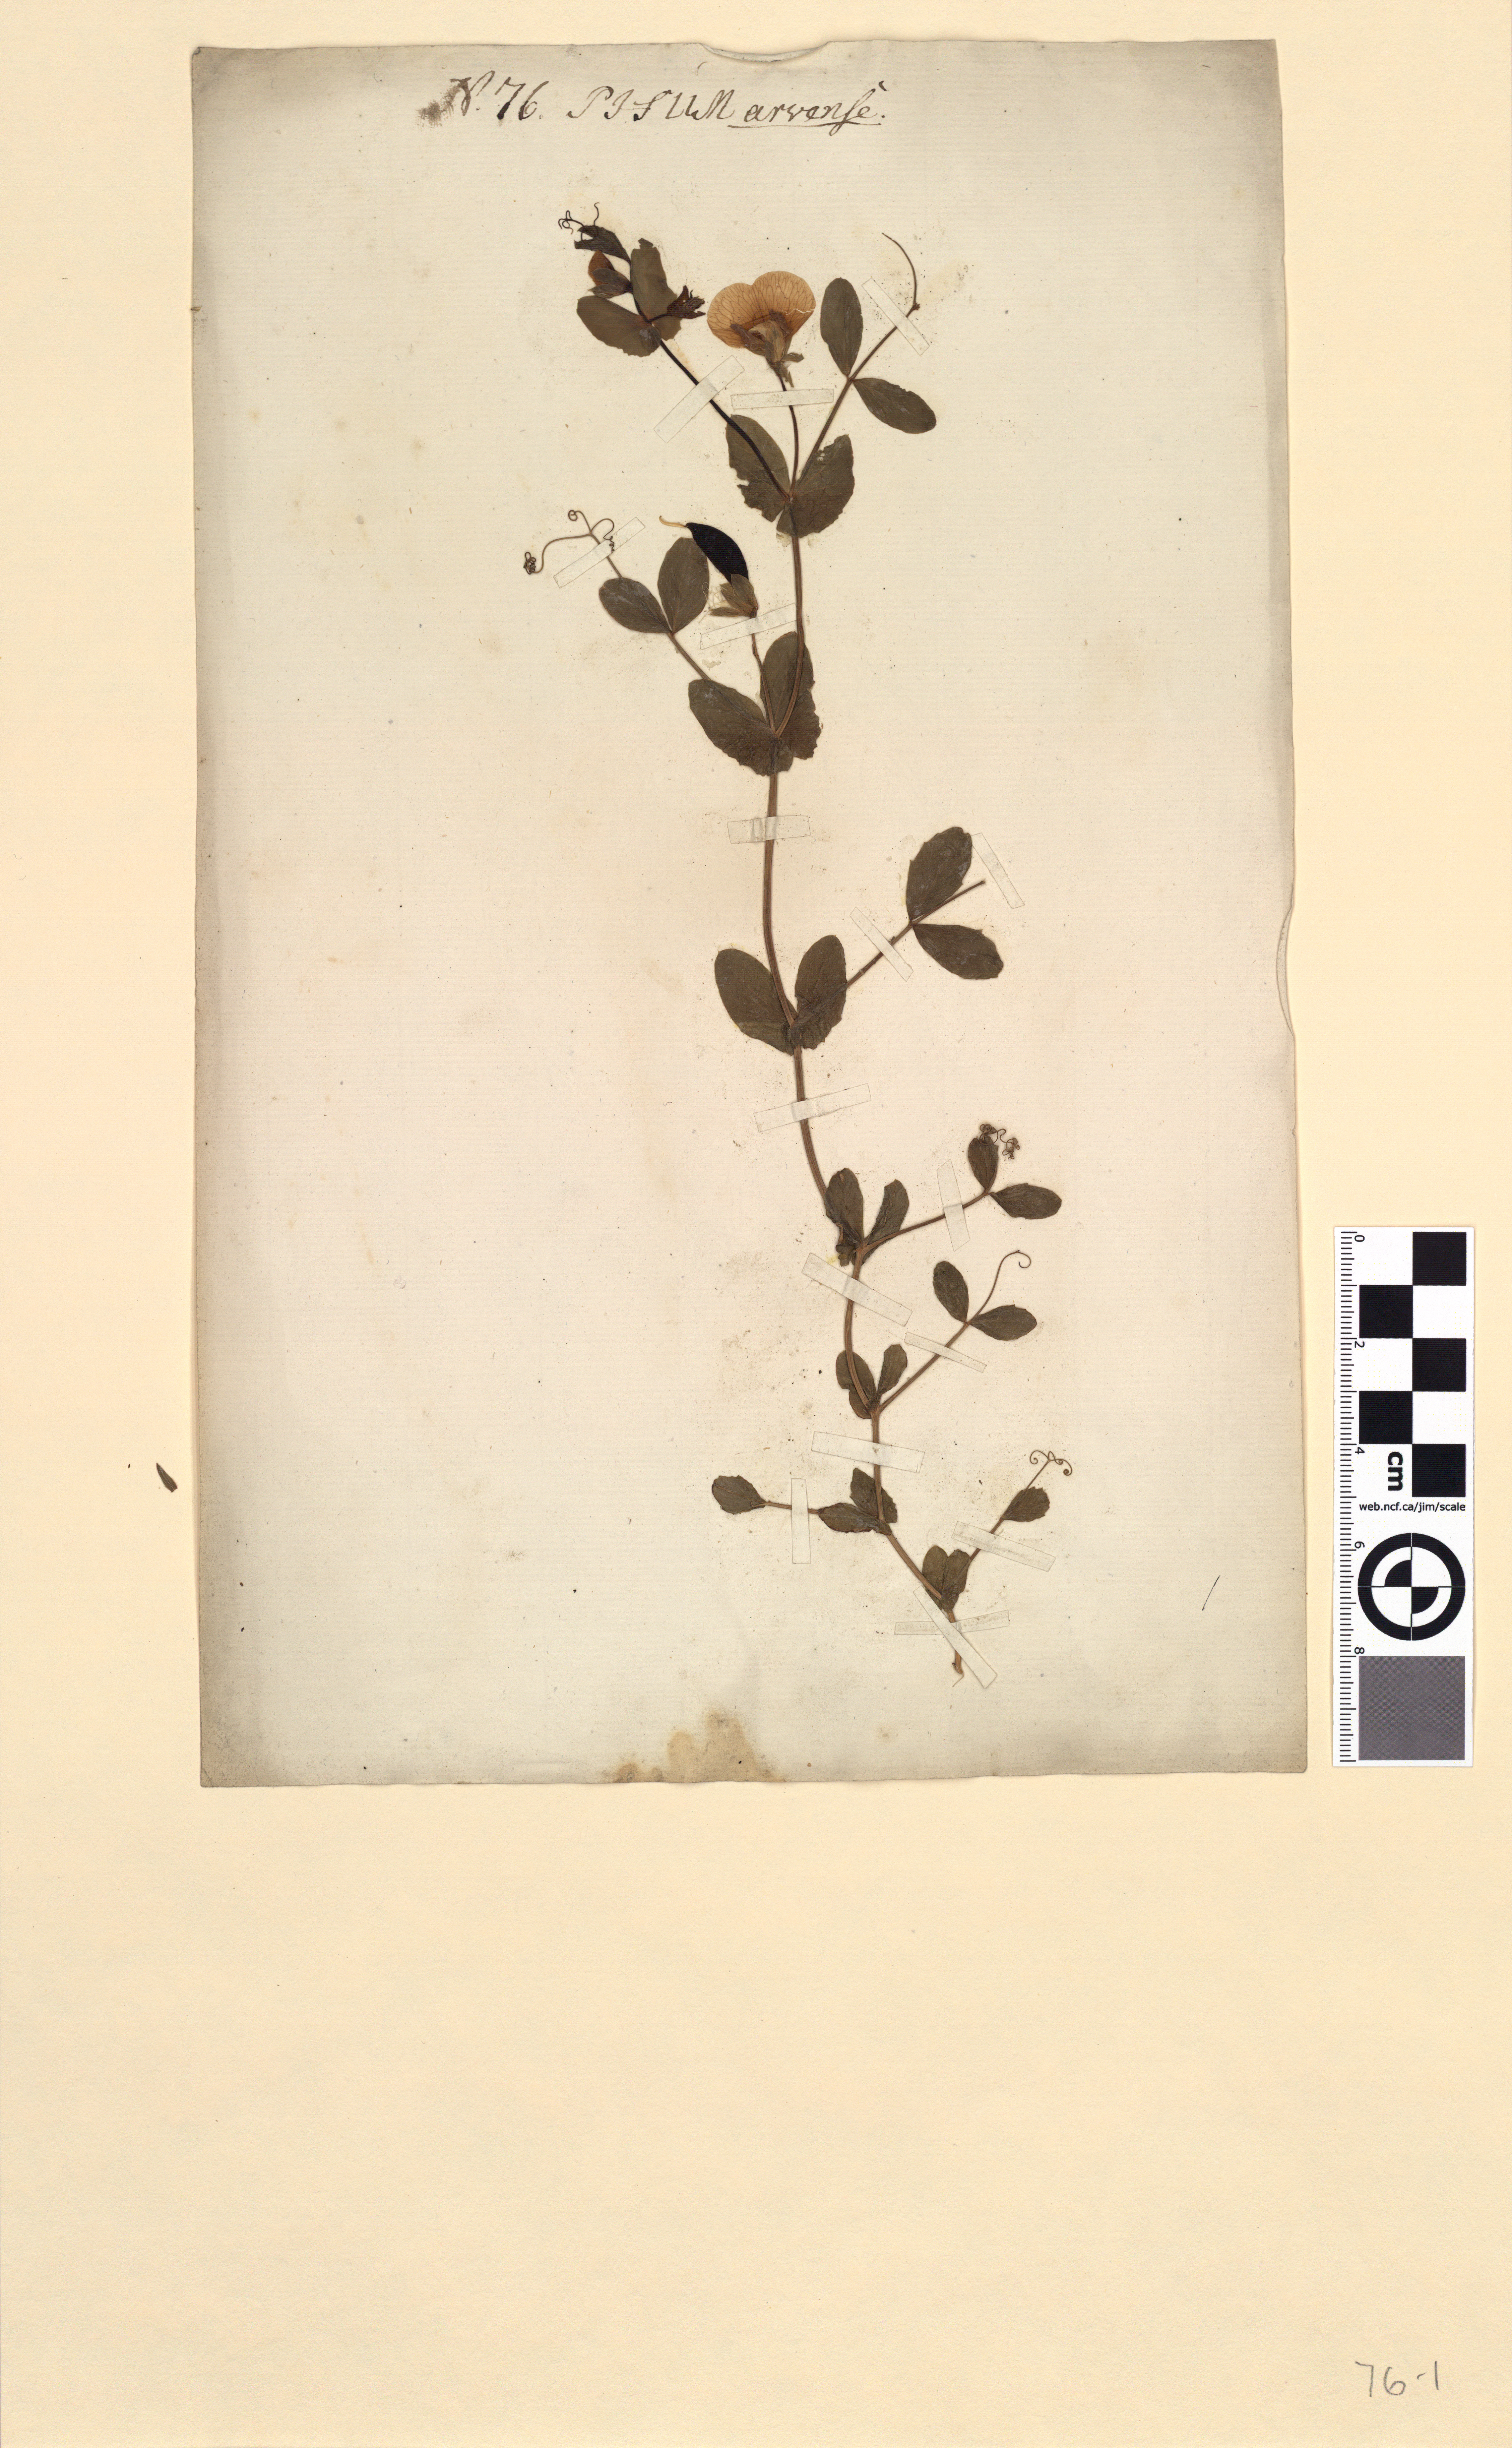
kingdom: Plantae
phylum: Tracheophyta
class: Magnoliopsida
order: Fabales
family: Fabaceae
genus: Lathyrus
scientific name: Lathyrus oleraceus
